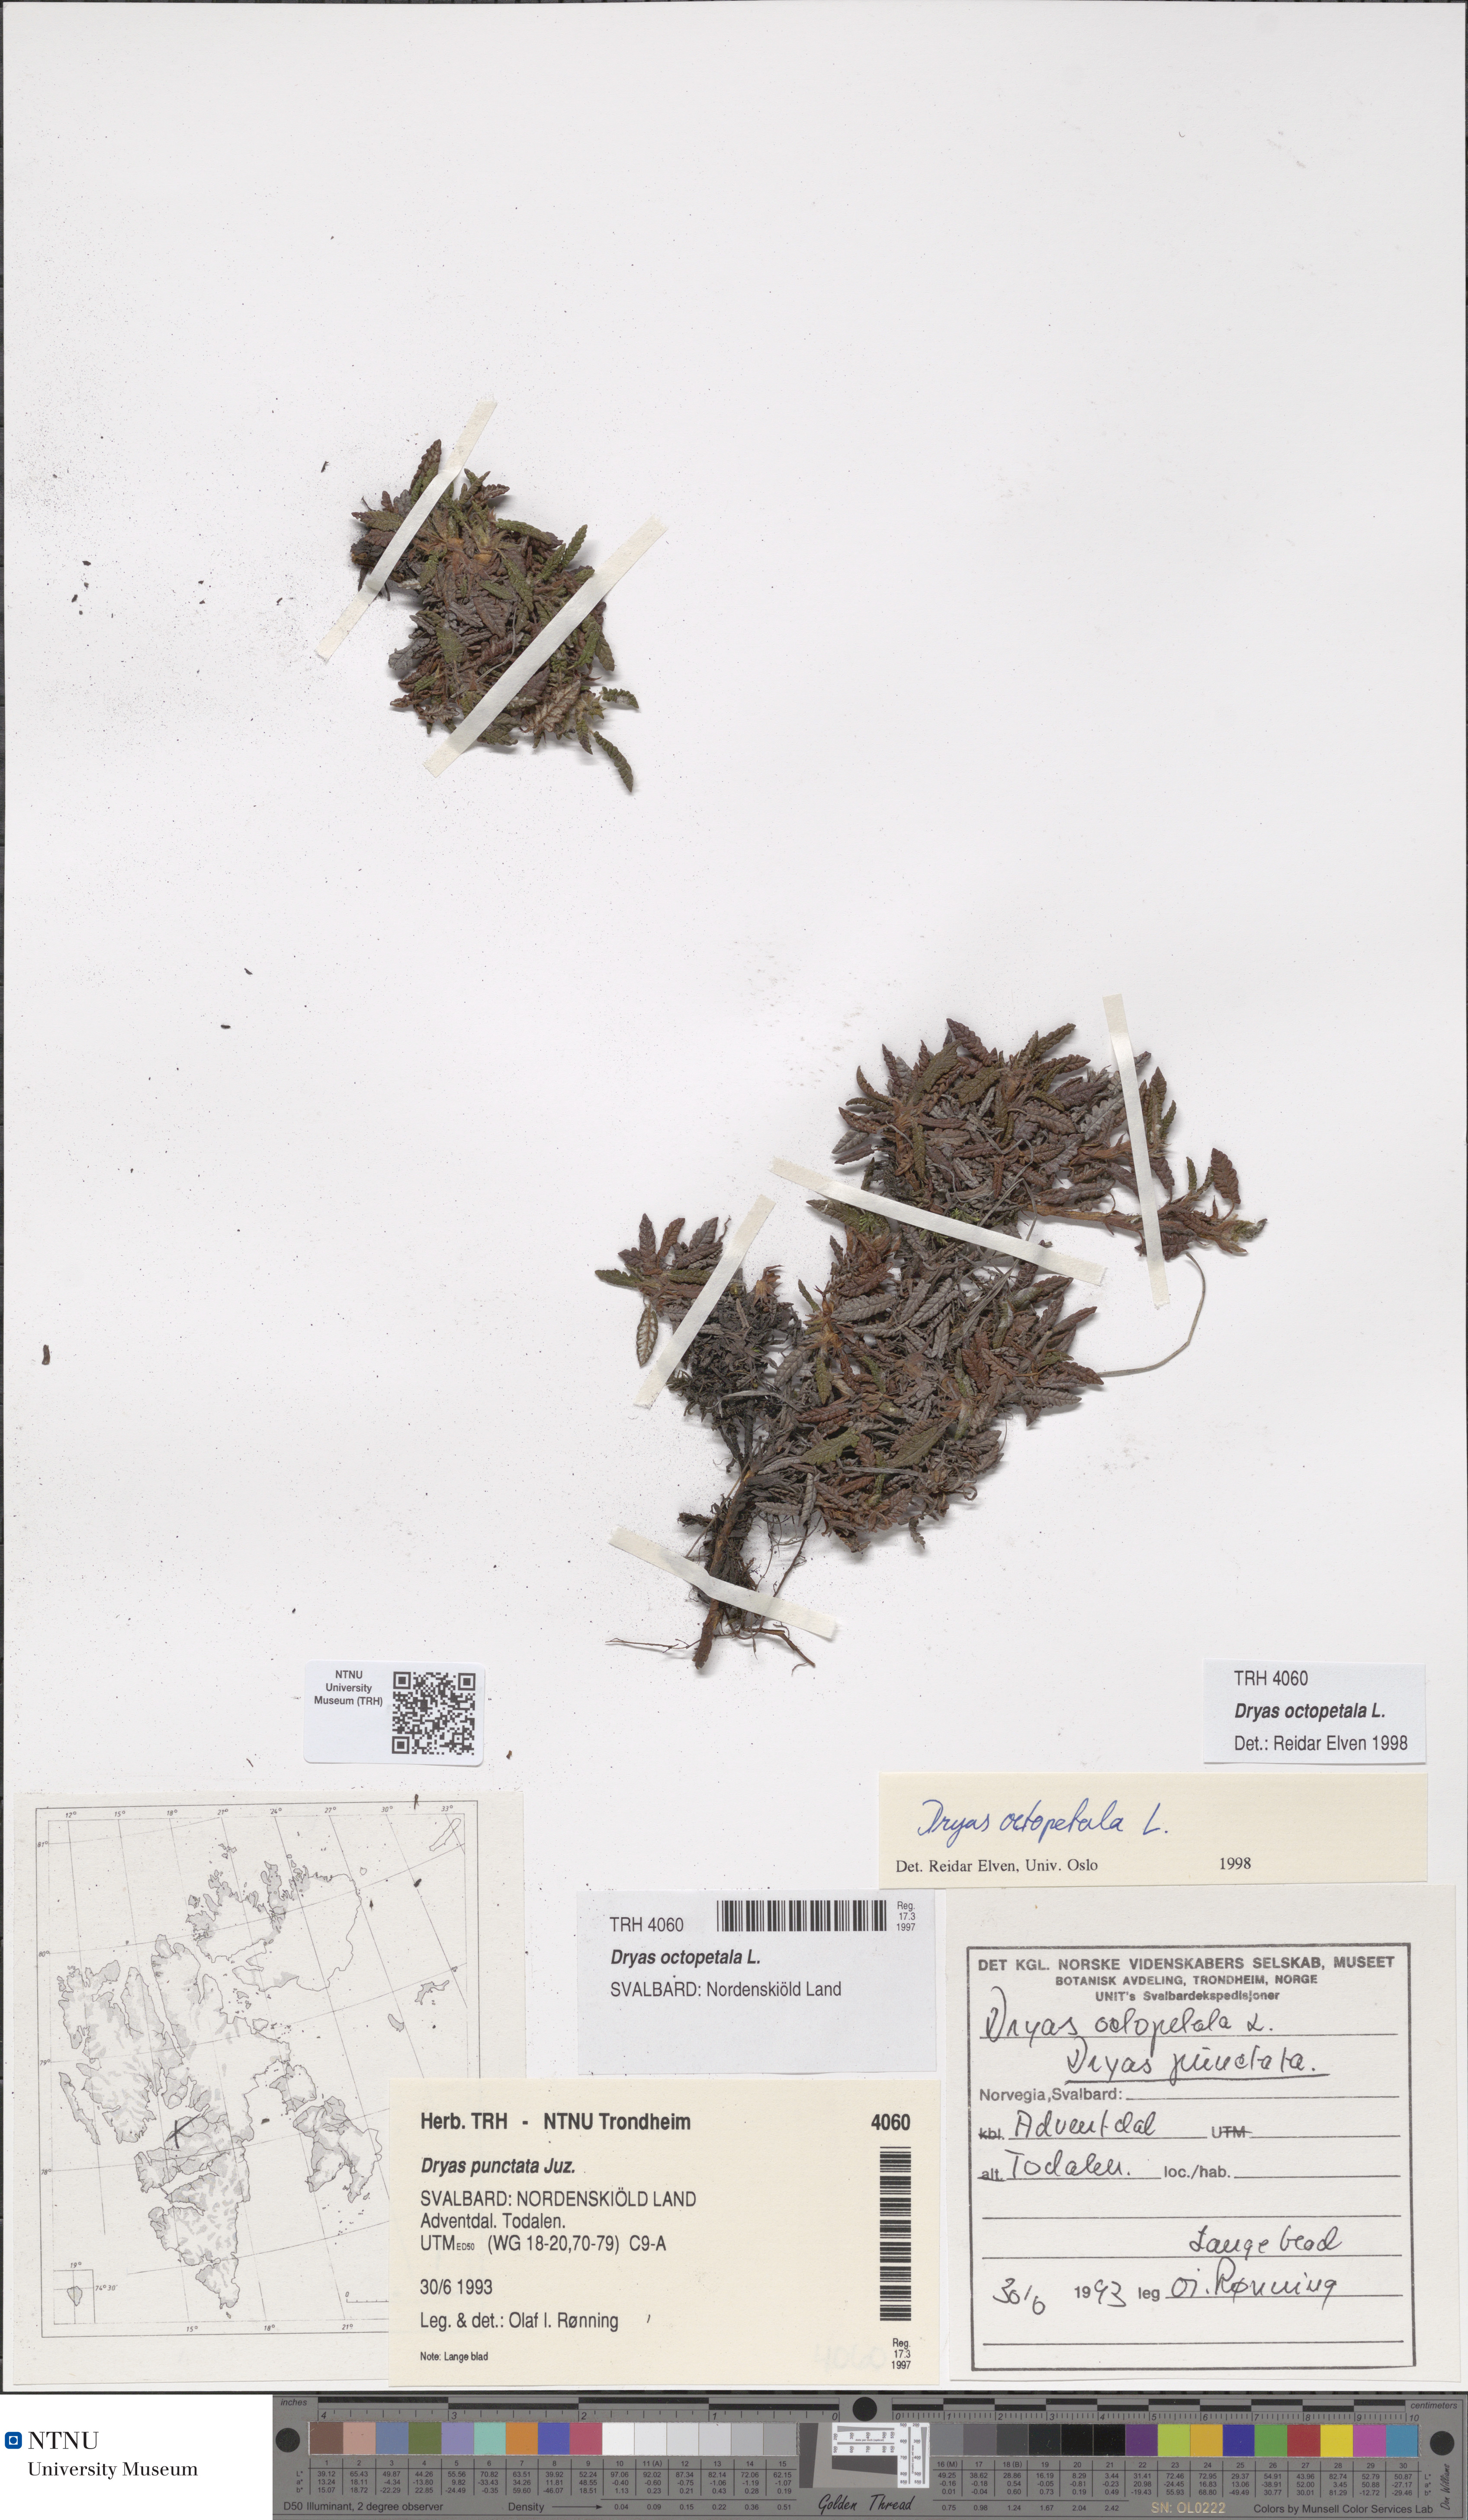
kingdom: Plantae
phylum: Tracheophyta
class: Magnoliopsida
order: Rosales
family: Rosaceae
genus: Dryas
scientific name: Dryas octopetala
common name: Eight-petal mountain-avens
